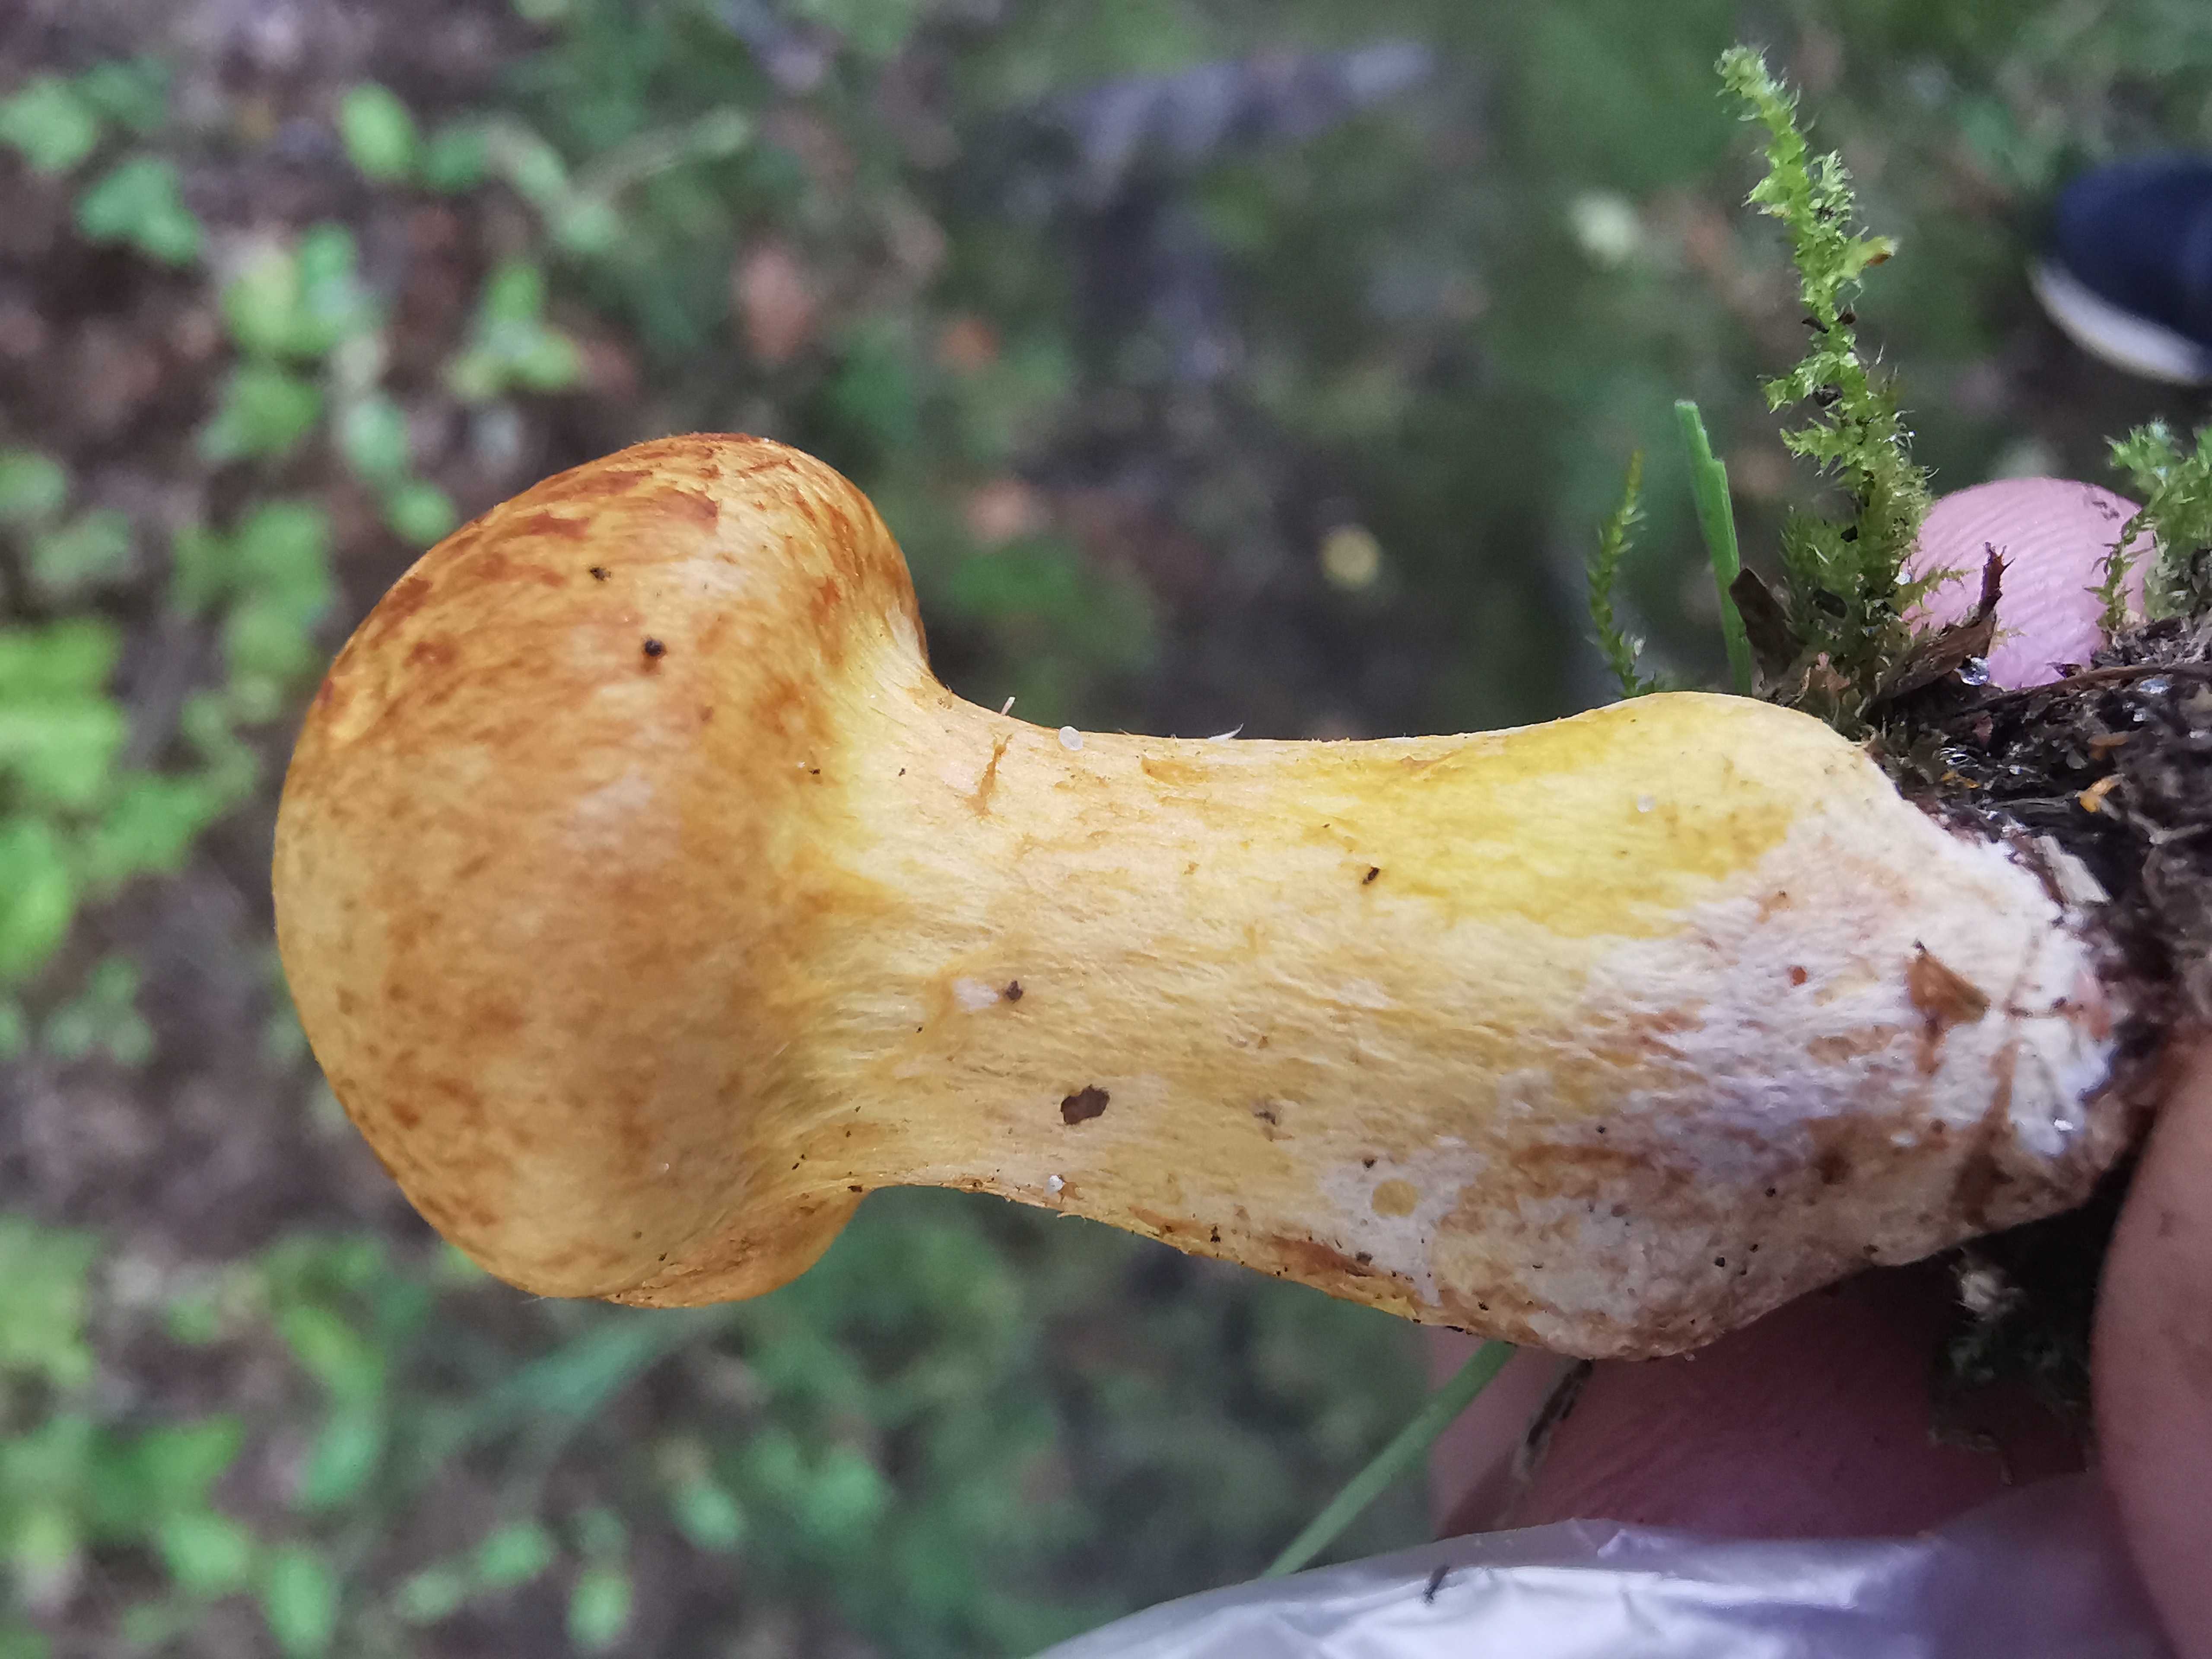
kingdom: Fungi
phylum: Basidiomycota
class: Agaricomycetes
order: Agaricales
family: Hymenogastraceae
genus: Gymnopilus
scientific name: Gymnopilus spectabilis
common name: fibret flammehat
